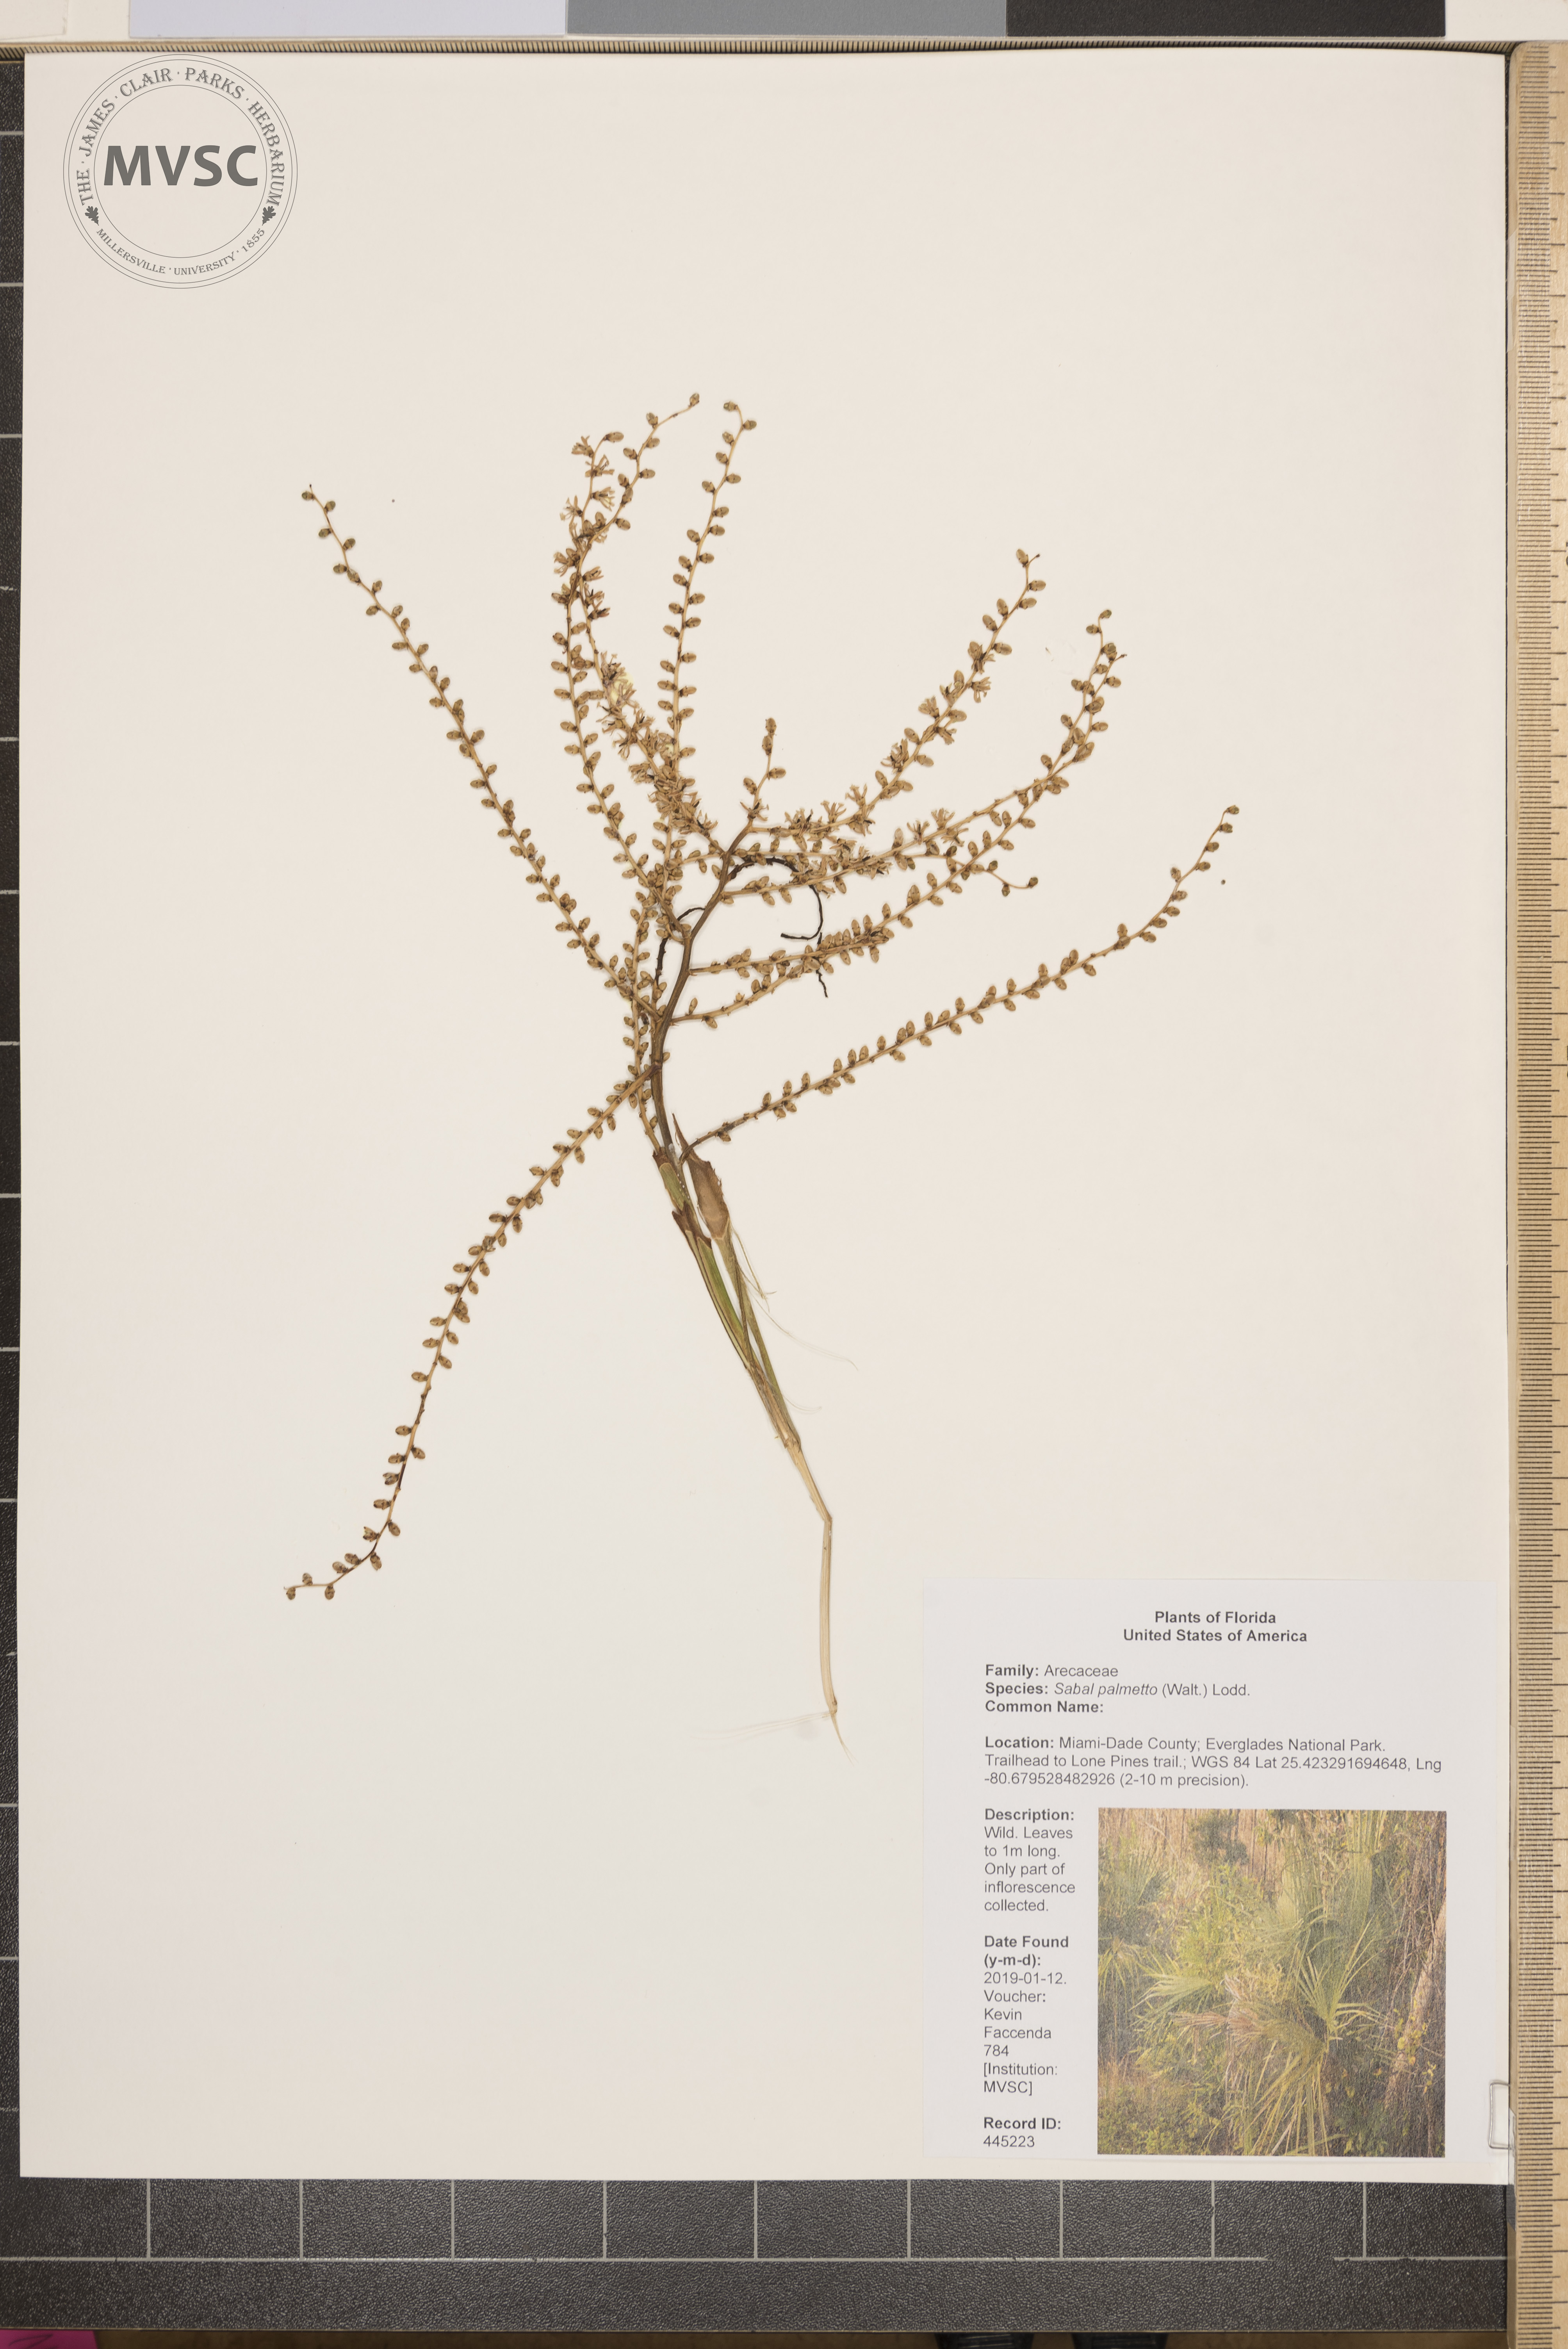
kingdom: Plantae
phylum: Tracheophyta
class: Liliopsida
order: Arecales
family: Arecaceae
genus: Sabal
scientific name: Sabal palmetto
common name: Blue palmetto
